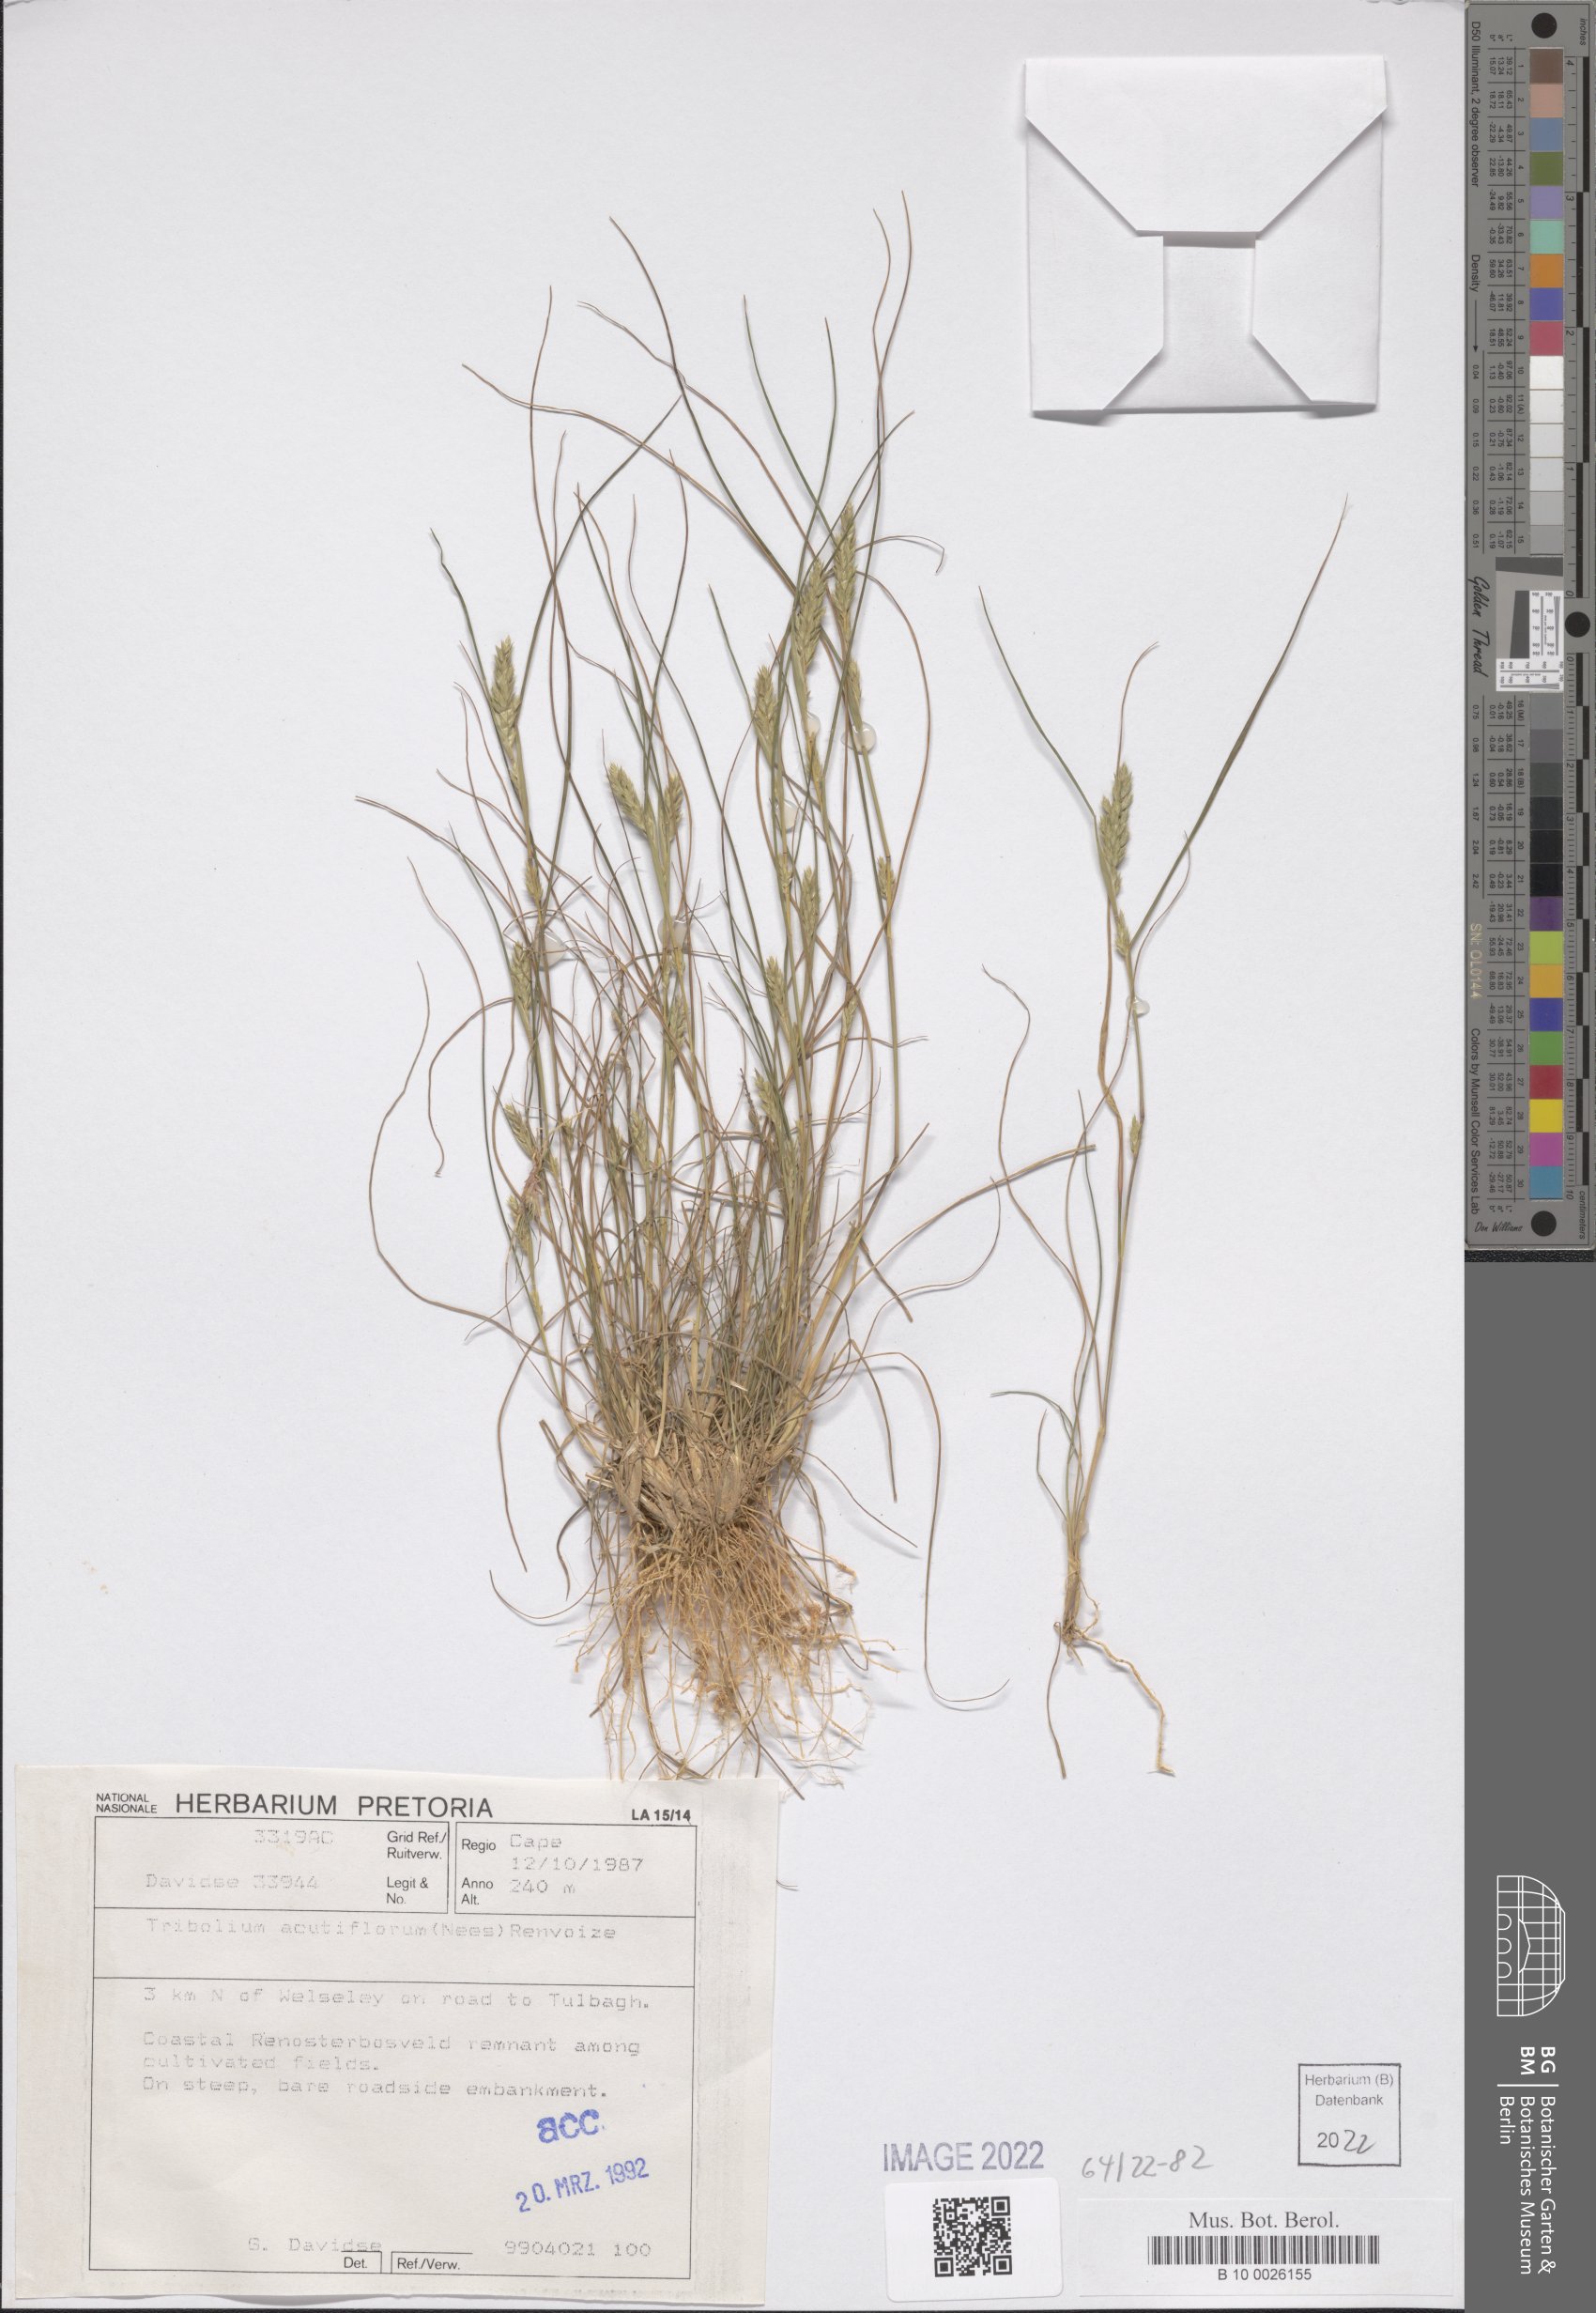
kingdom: Plantae
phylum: Tracheophyta
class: Liliopsida
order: Poales
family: Poaceae
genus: Tribolium
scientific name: Tribolium acutiflorum
